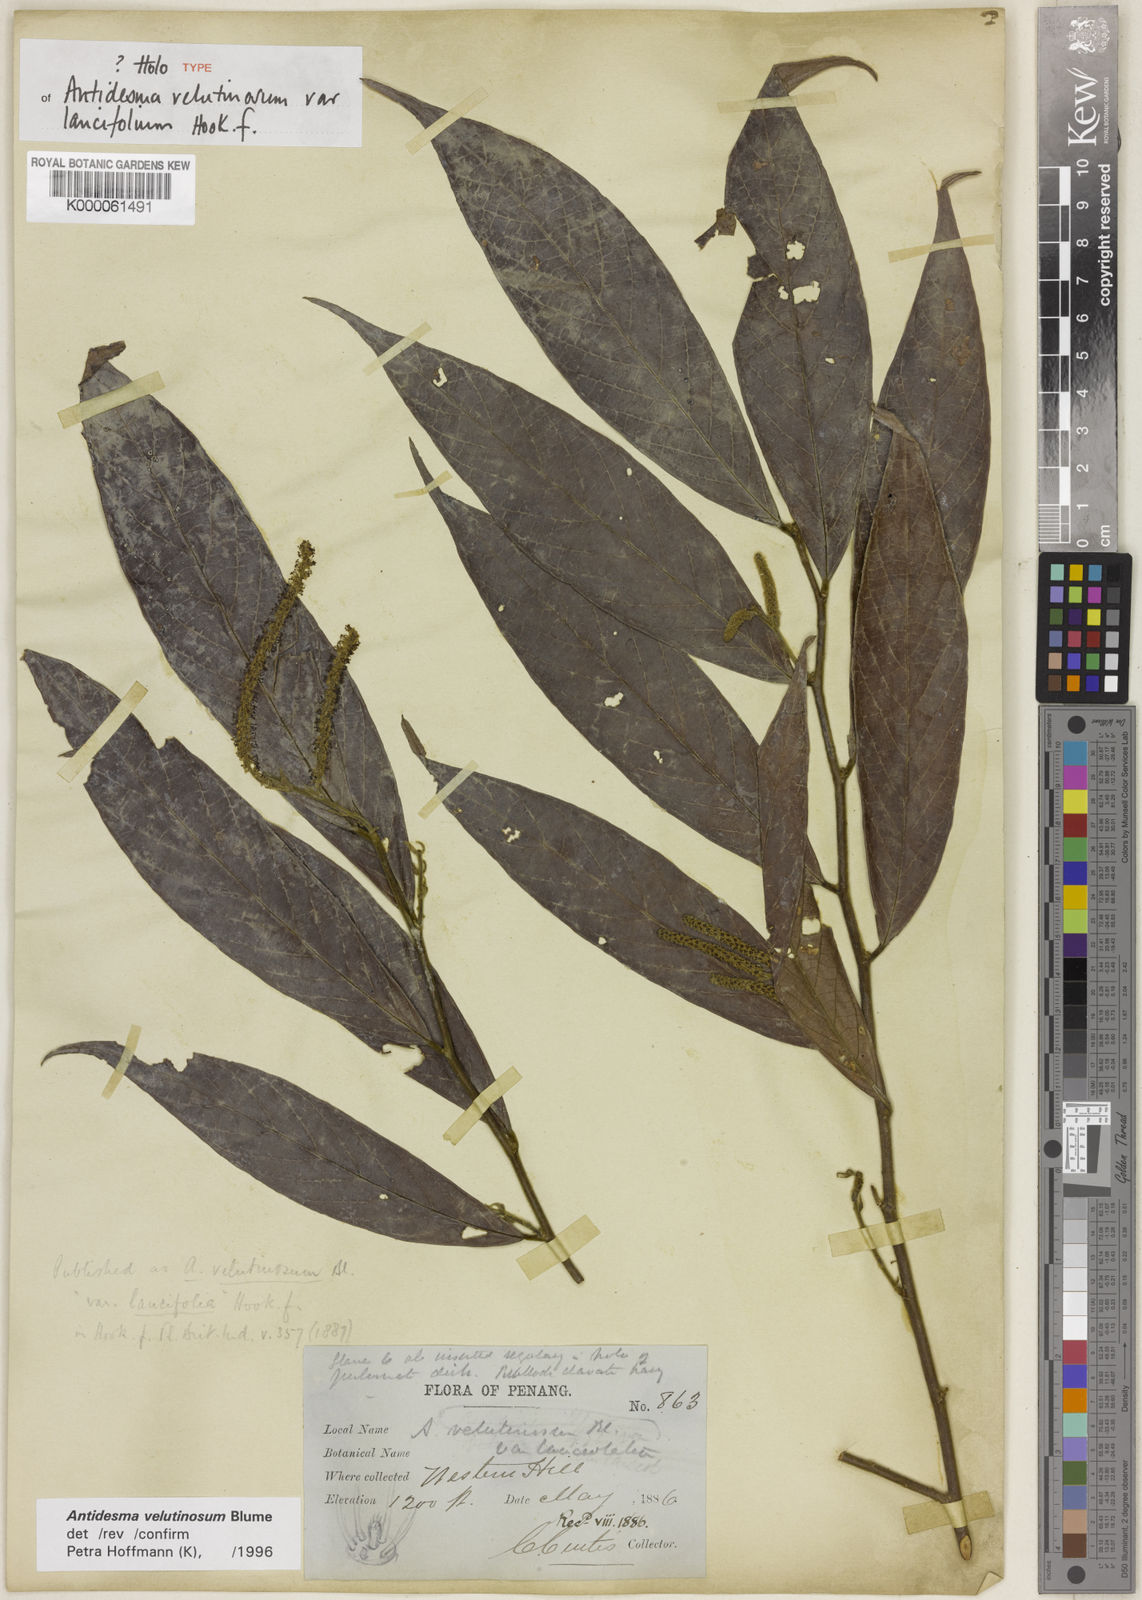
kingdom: Plantae
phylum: Tracheophyta
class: Magnoliopsida
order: Malpighiales
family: Phyllanthaceae
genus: Antidesma
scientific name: Antidesma velutinosum
